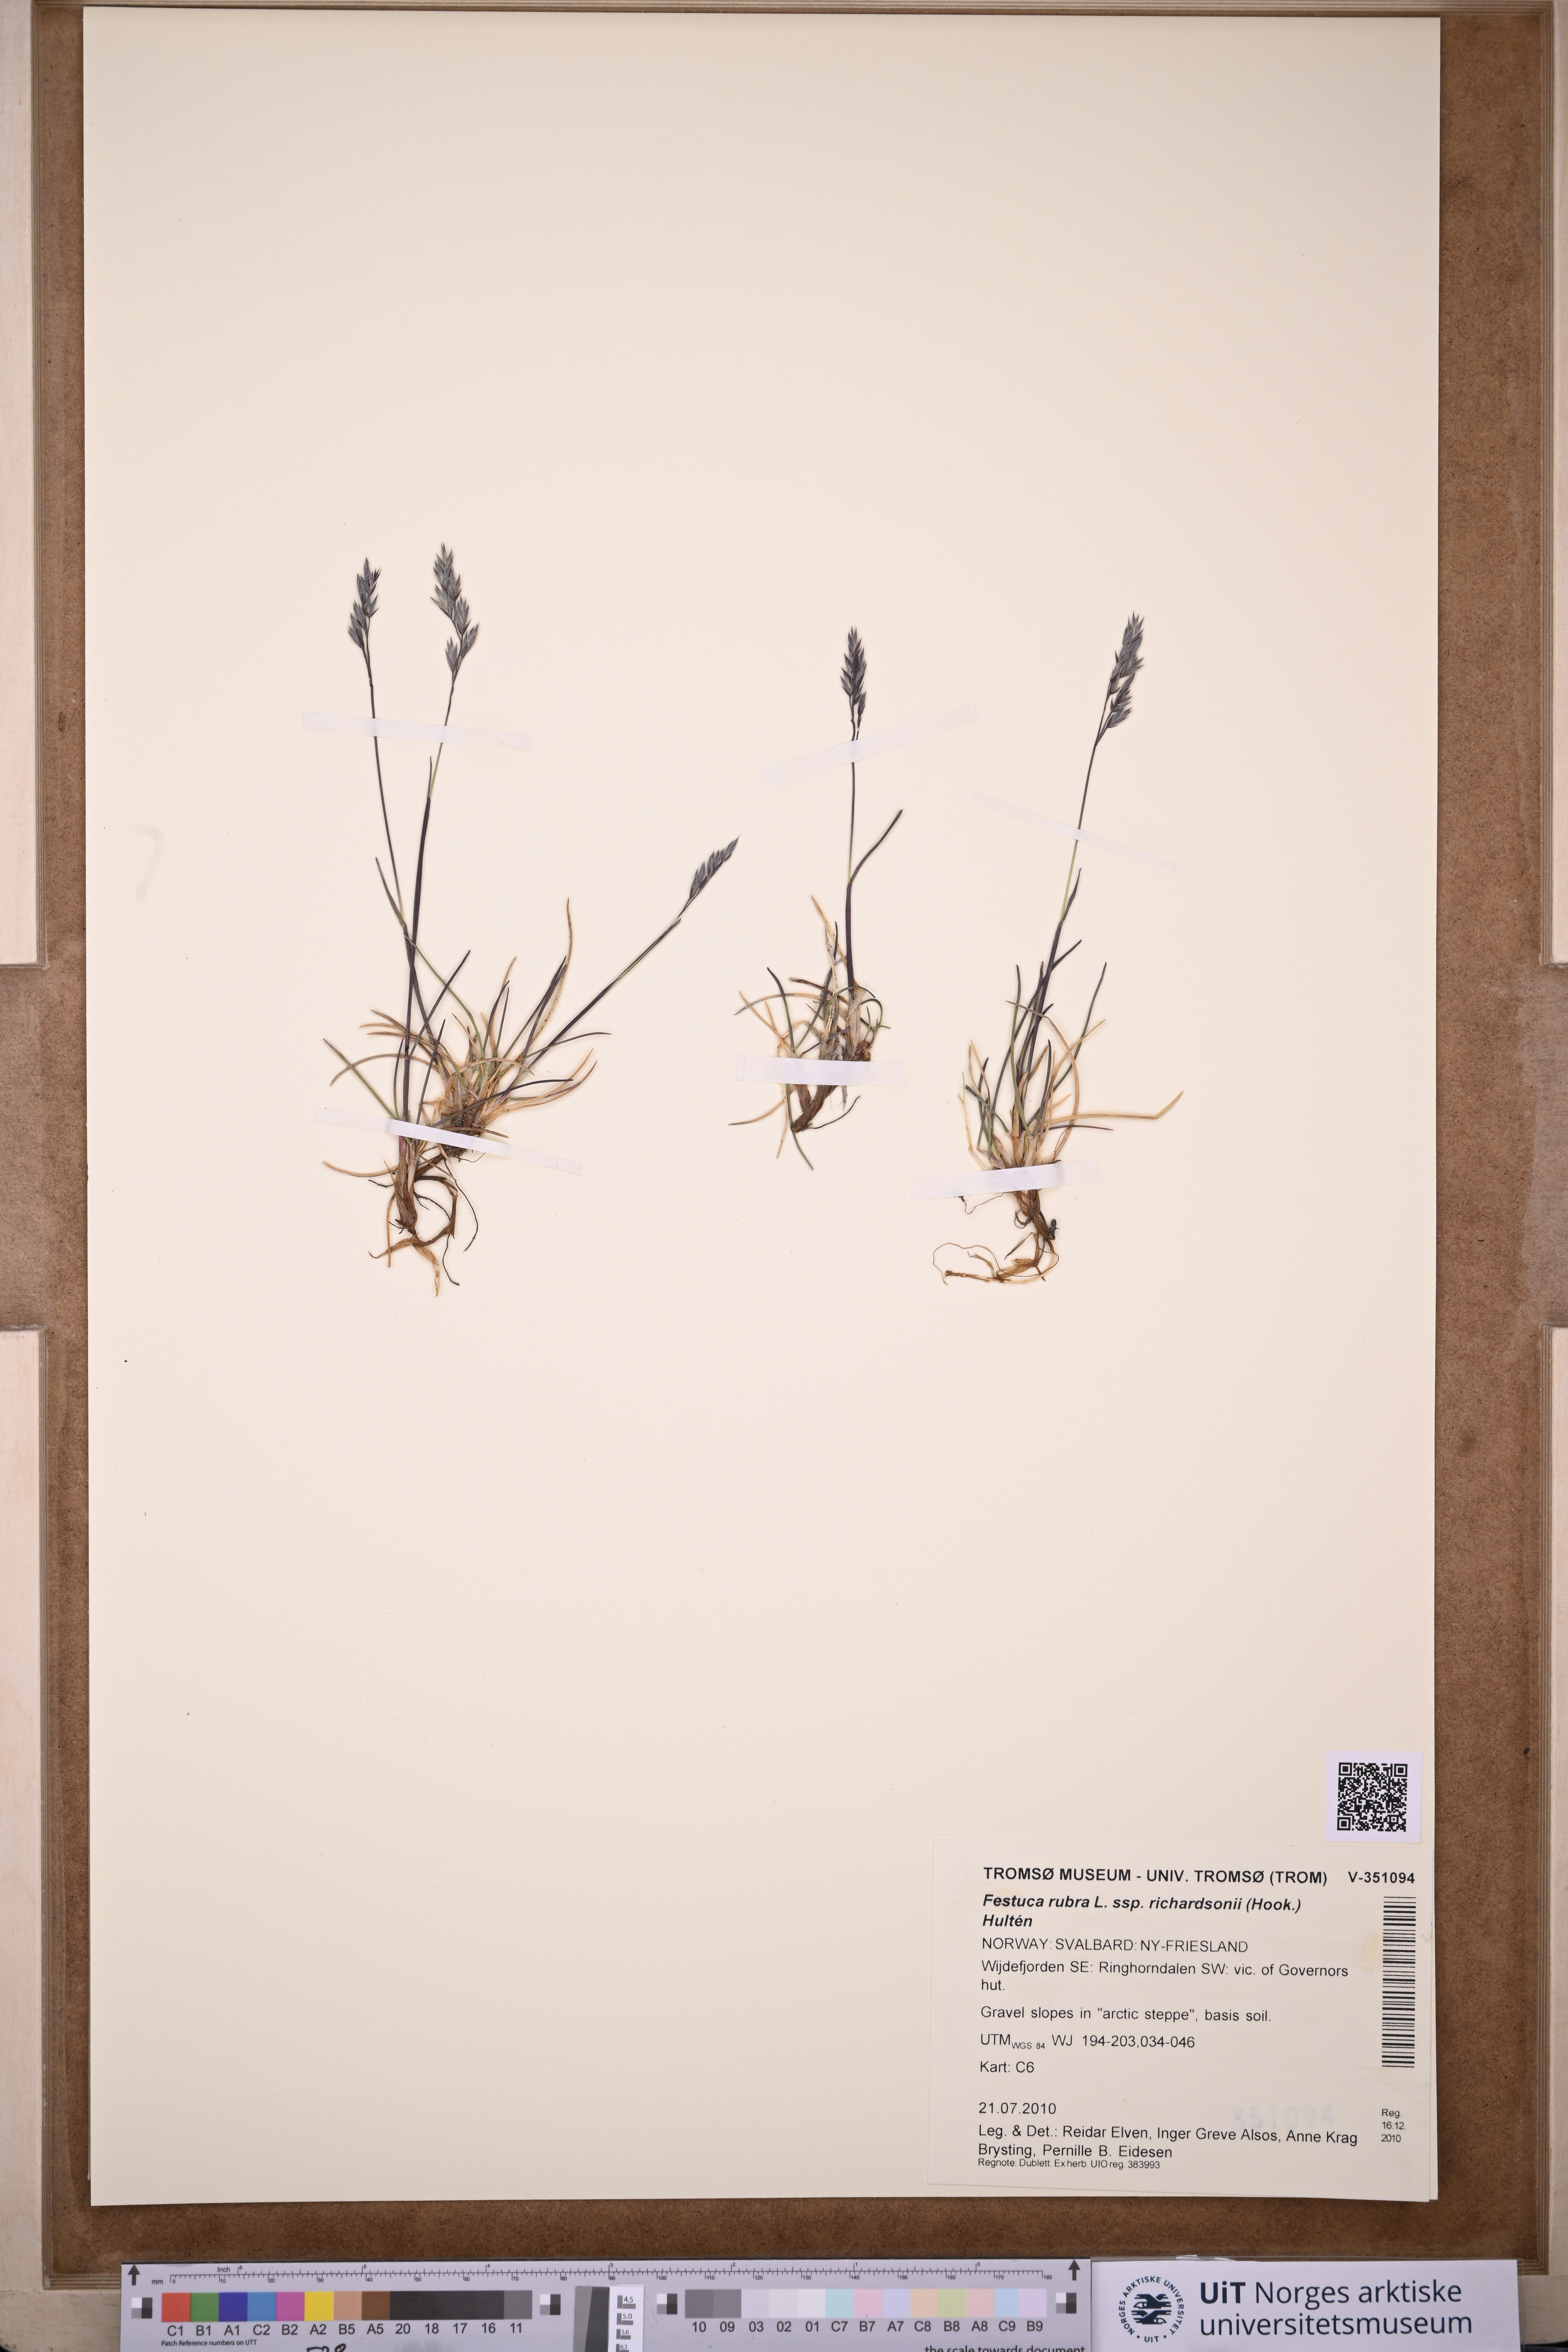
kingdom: Plantae
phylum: Tracheophyta
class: Liliopsida
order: Poales
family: Poaceae
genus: Festuca
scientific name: Festuca richardsonii
